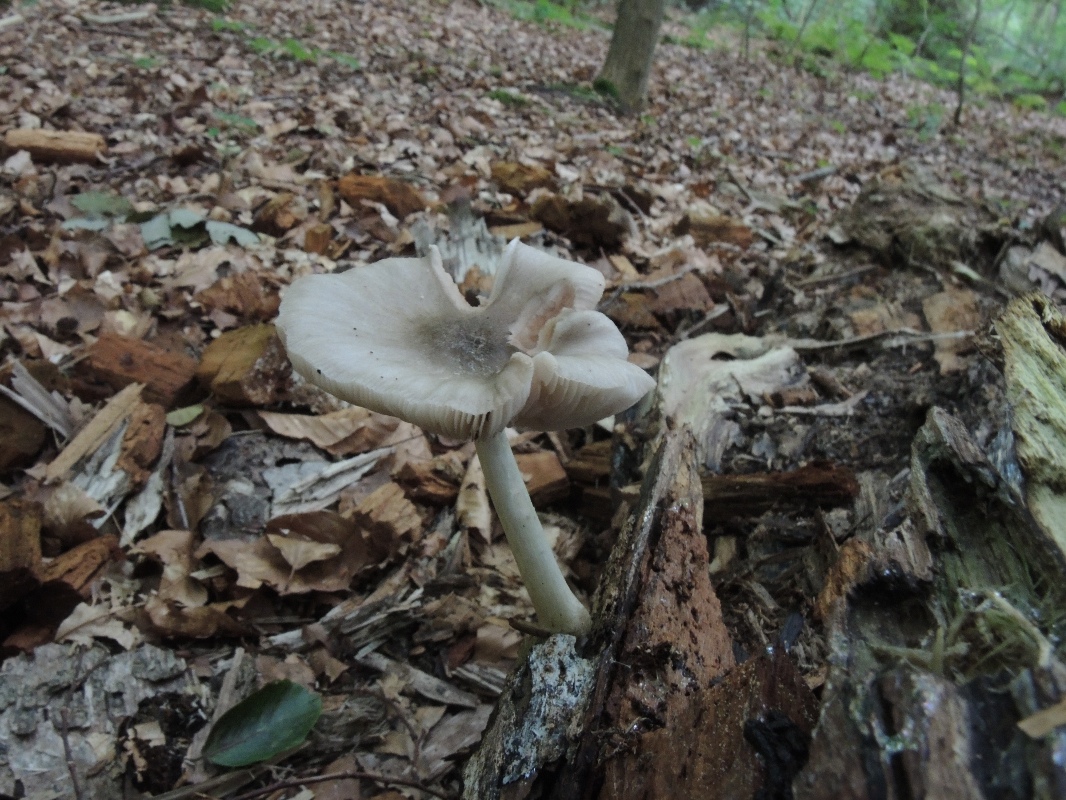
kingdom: Fungi
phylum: Basidiomycota
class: Agaricomycetes
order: Agaricales
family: Pluteaceae
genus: Pluteus
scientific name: Pluteus salicinus
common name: stiv skærmhat
